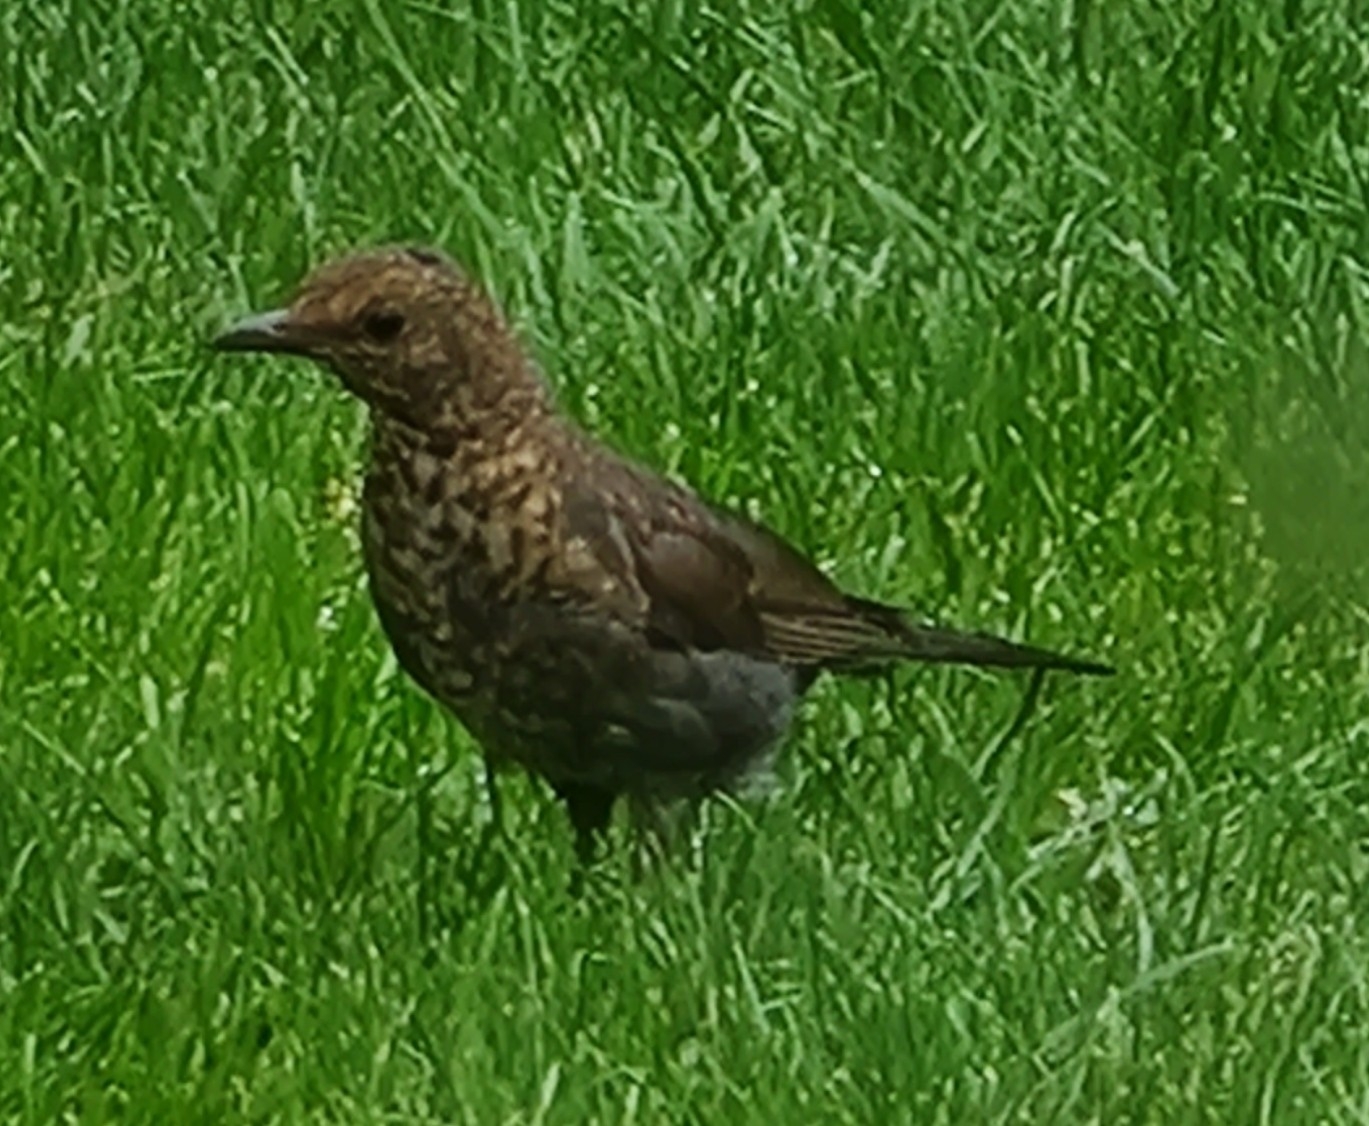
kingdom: Animalia
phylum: Chordata
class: Aves
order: Passeriformes
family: Turdidae
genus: Turdus
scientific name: Turdus merula
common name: Solsort
